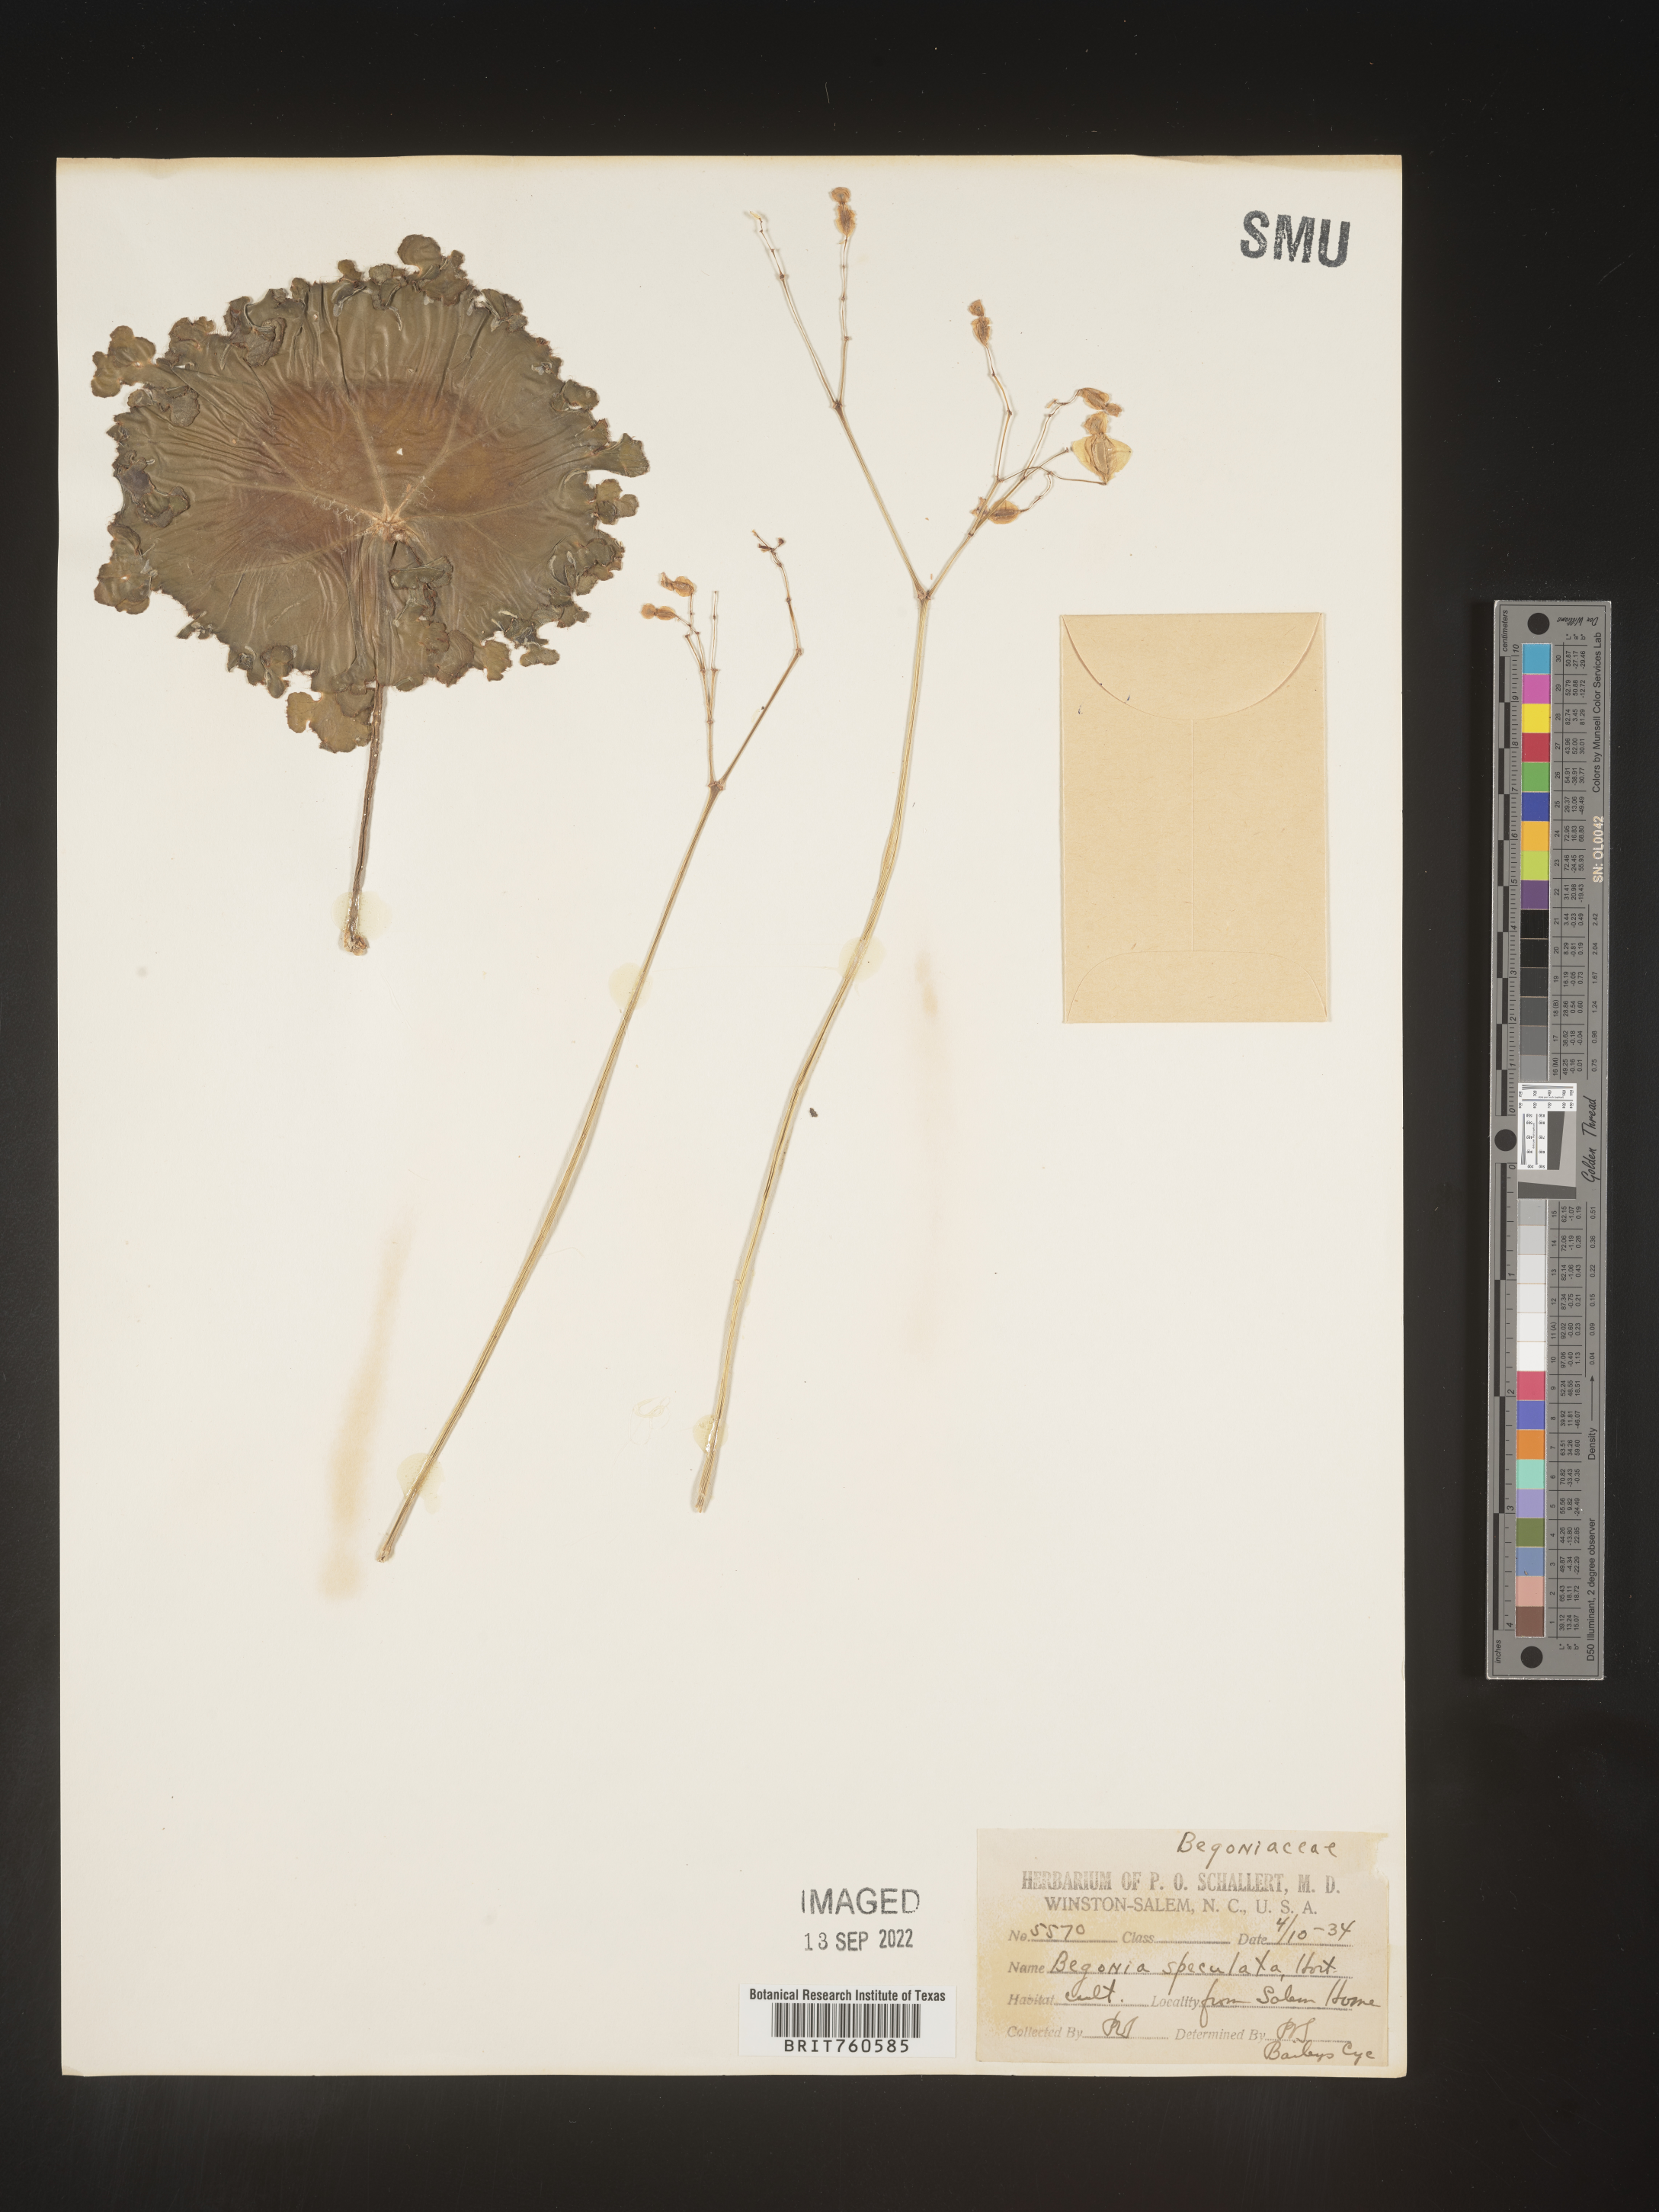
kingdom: Plantae
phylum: Tracheophyta
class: Magnoliopsida
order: Cucurbitales
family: Begoniaceae
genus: Begonia
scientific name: Begonia
